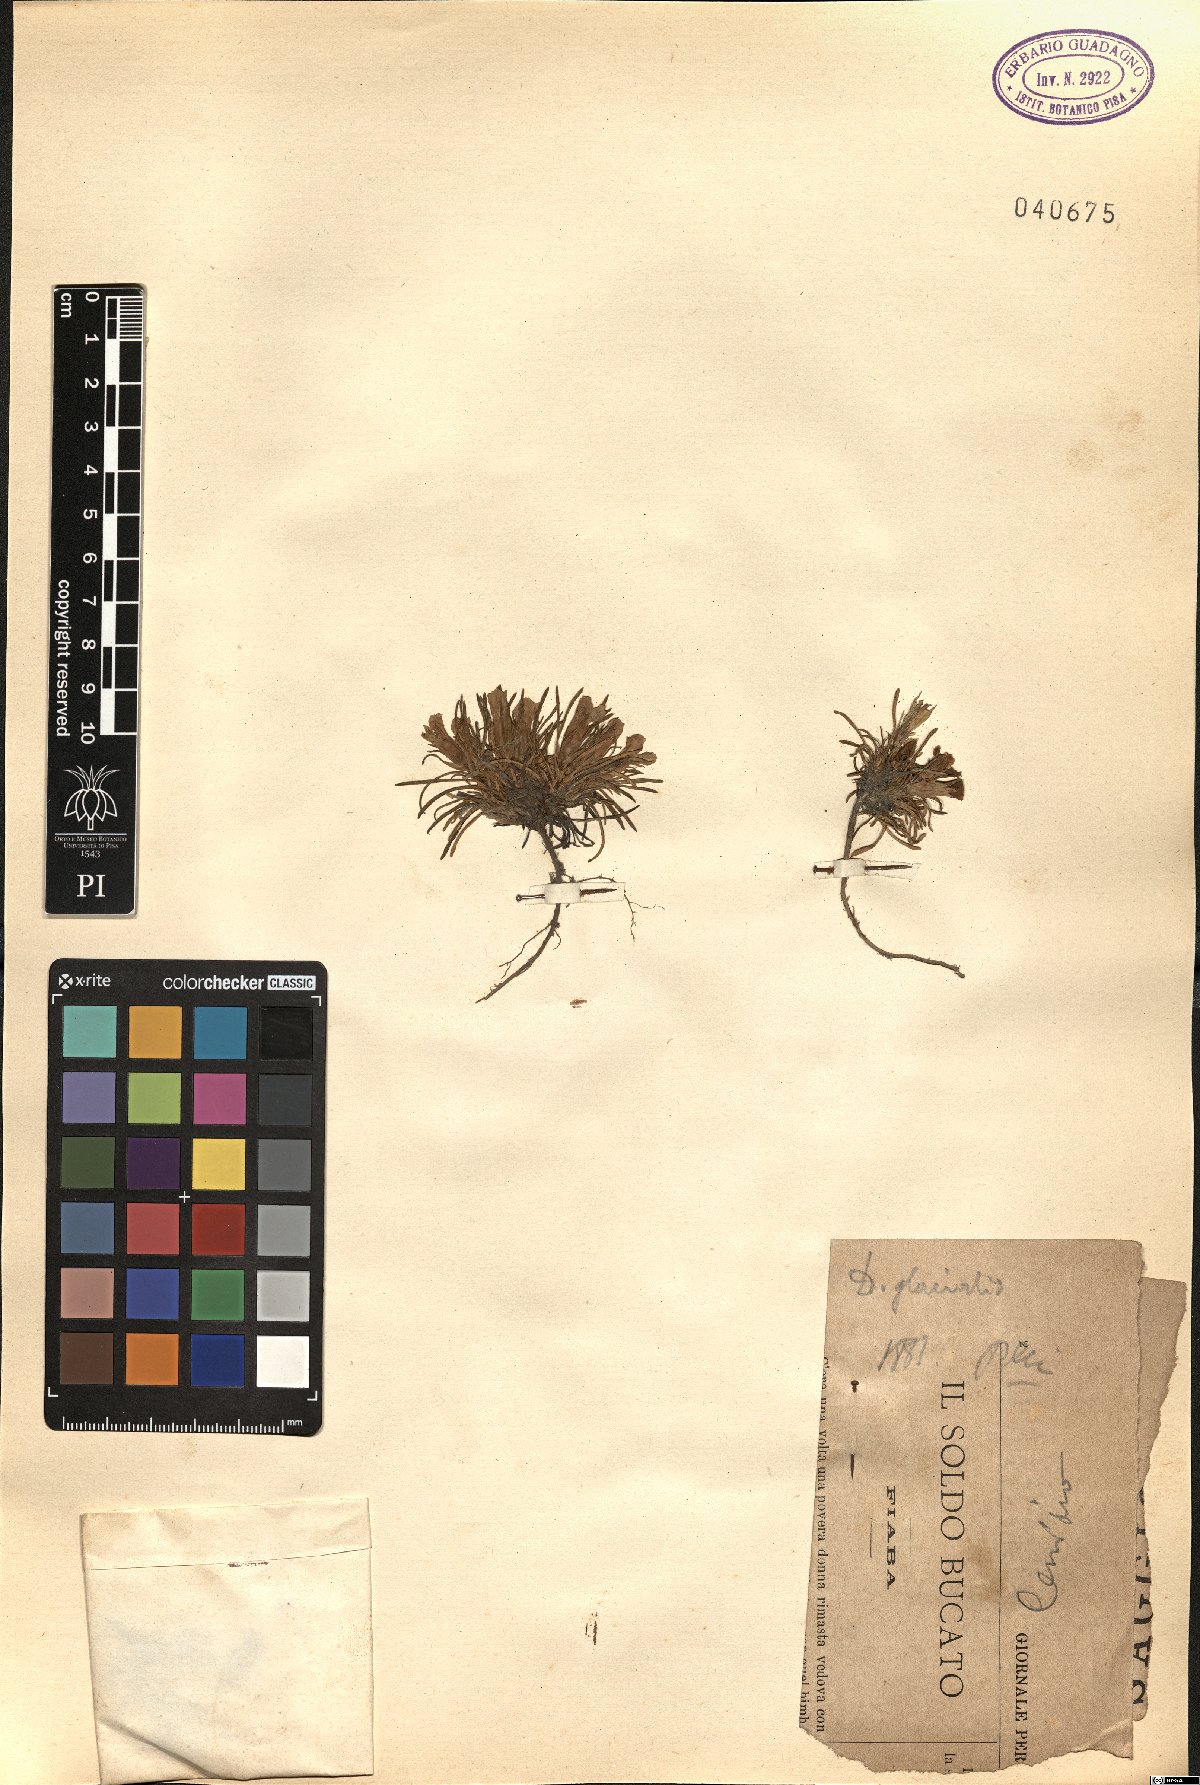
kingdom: Plantae
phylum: Tracheophyta
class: Magnoliopsida
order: Caryophyllales
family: Caryophyllaceae
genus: Dianthus
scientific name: Dianthus glacialis
